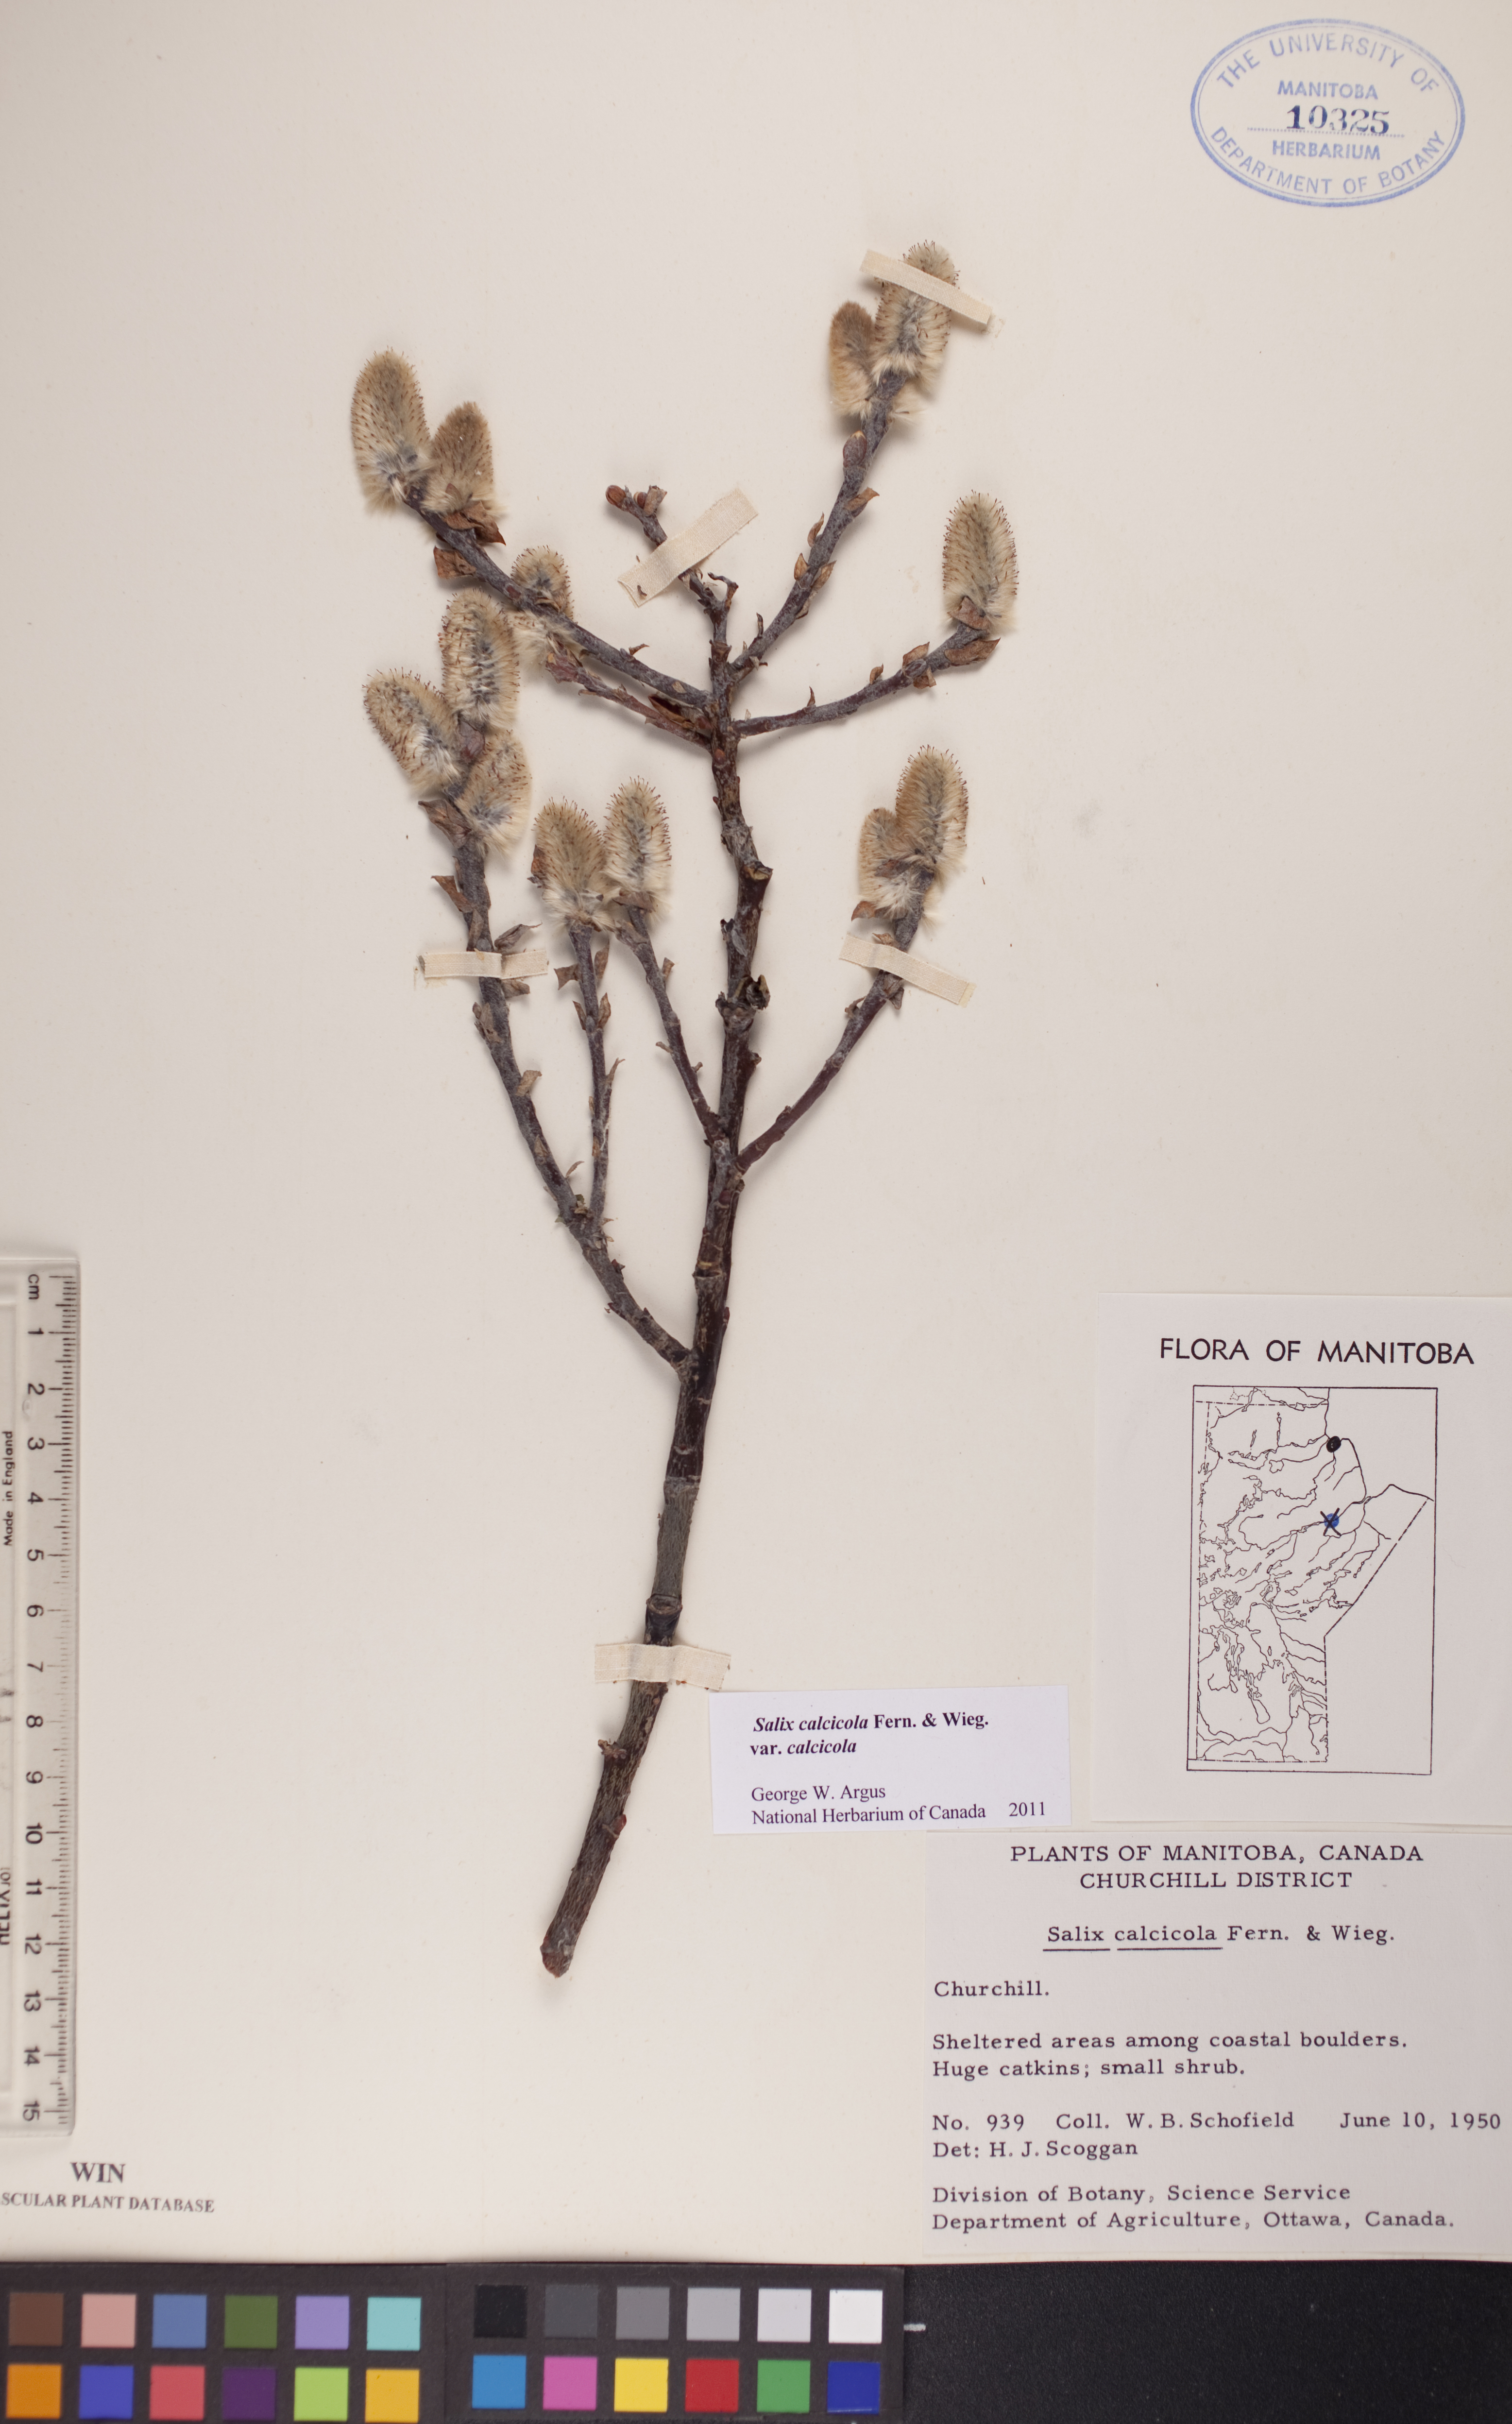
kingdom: Plantae
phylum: Tracheophyta
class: Magnoliopsida
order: Malpighiales
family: Salicaceae
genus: Salix
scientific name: Salix calcicola
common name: Calcareous willow
